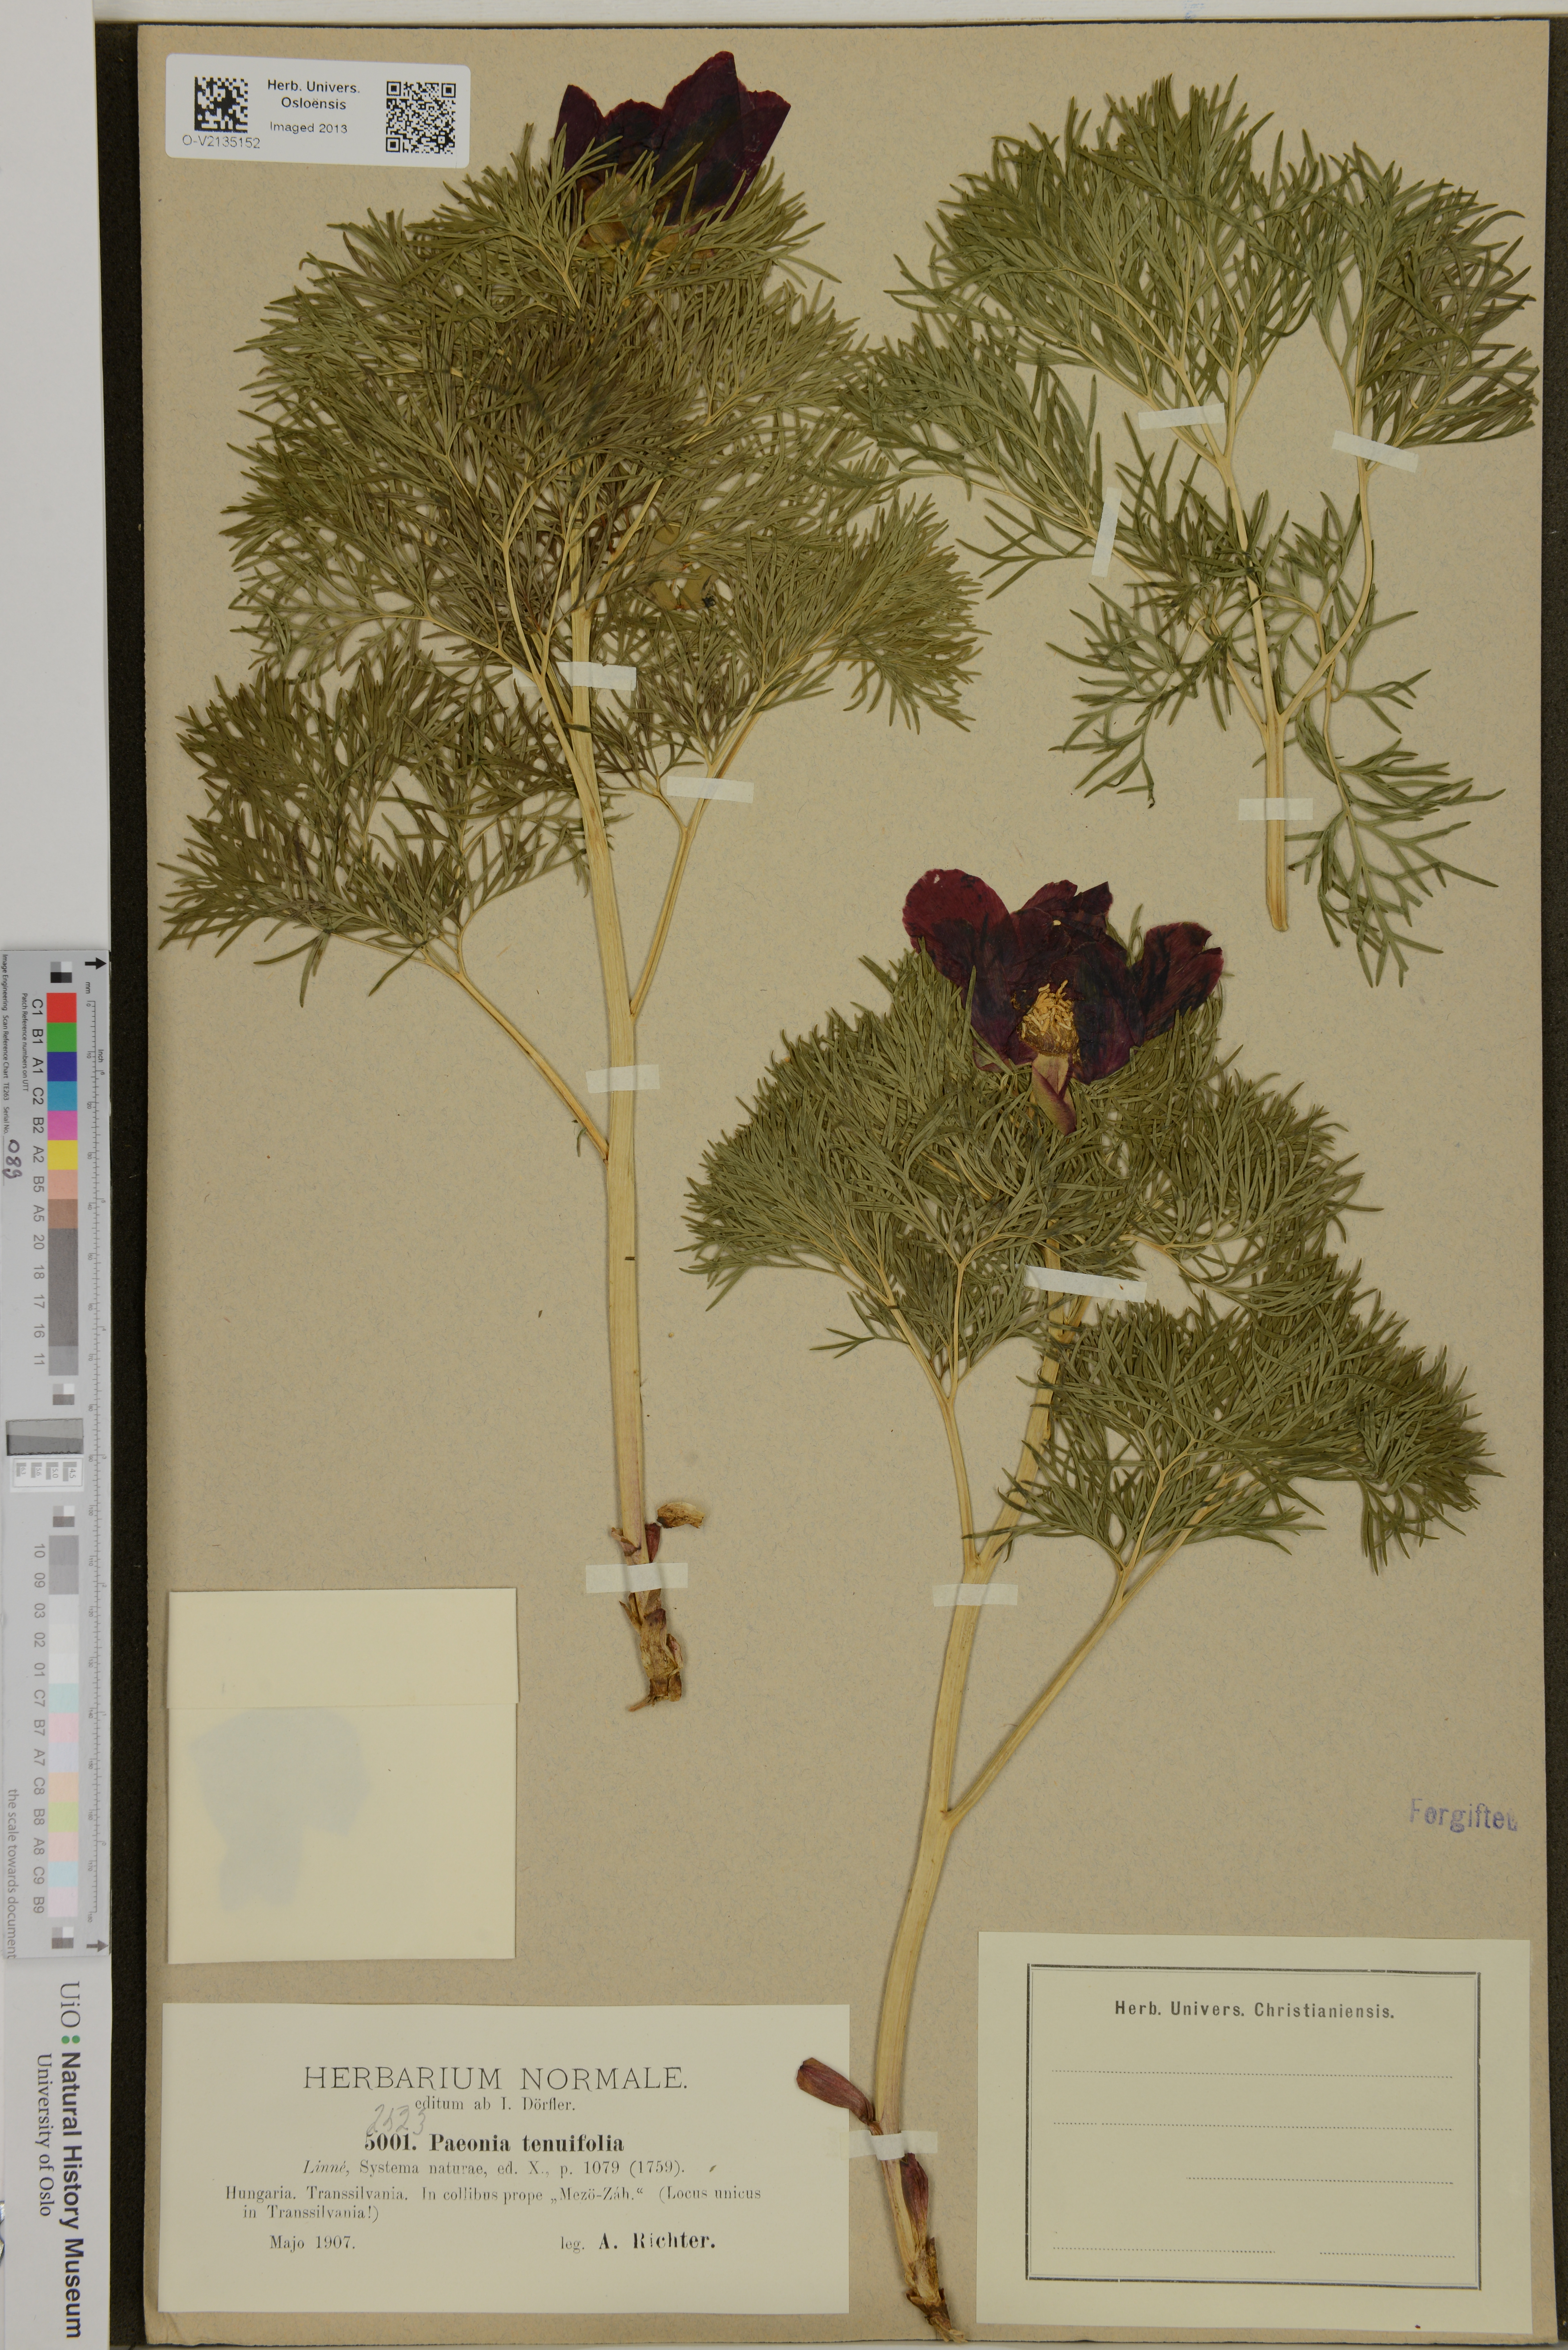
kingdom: Plantae
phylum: Tracheophyta
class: Magnoliopsida
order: Saxifragales
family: Paeoniaceae
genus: Paeonia
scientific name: Paeonia tenuifolia
